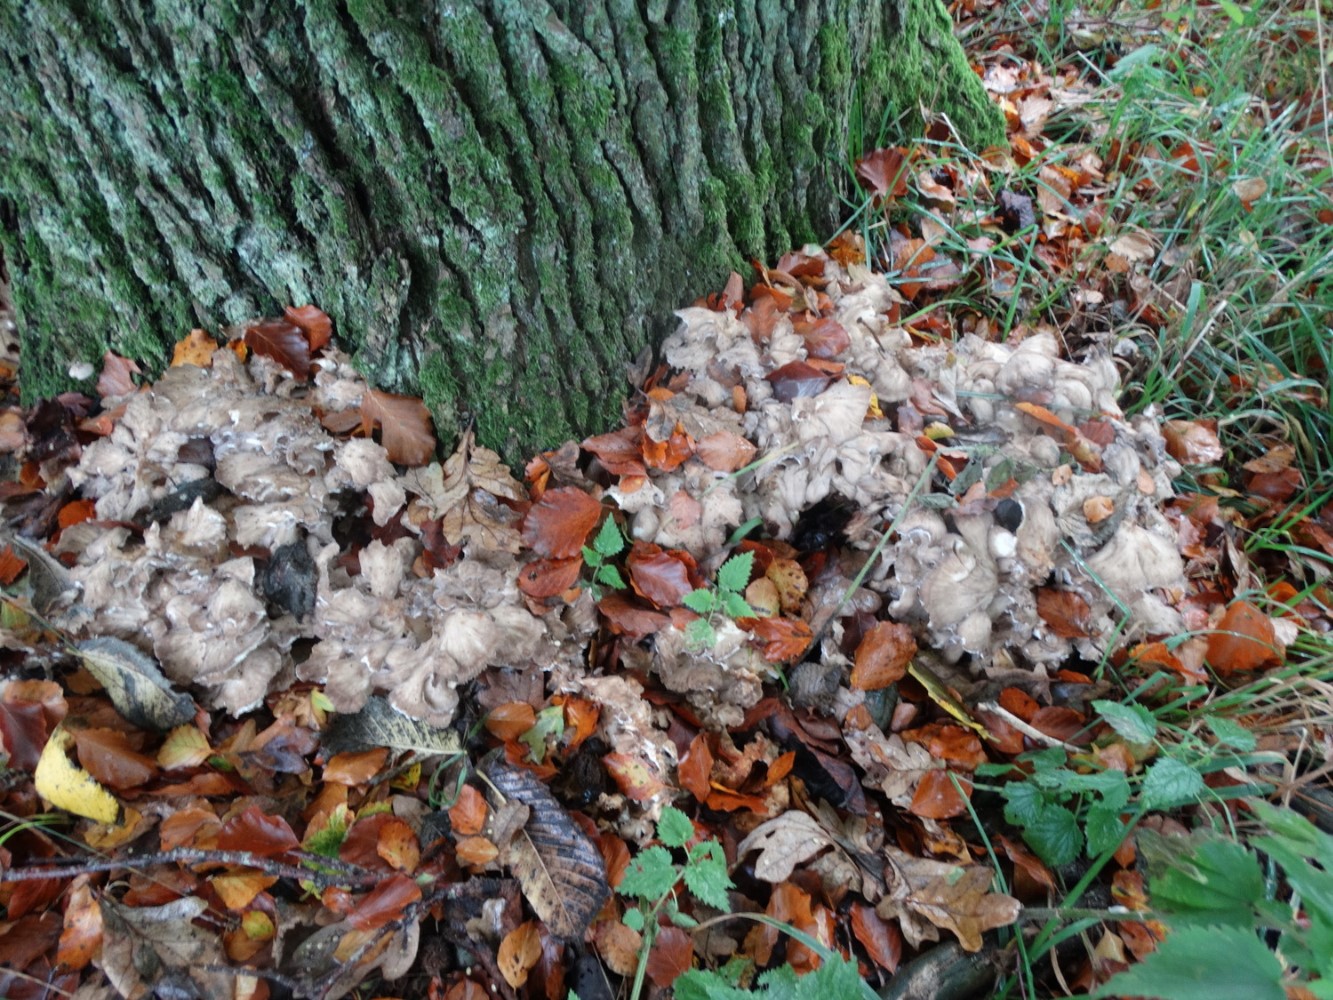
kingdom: Fungi
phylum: Basidiomycota
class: Agaricomycetes
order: Polyporales
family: Grifolaceae
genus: Grifola
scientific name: Grifola frondosa
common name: tueporesvamp
